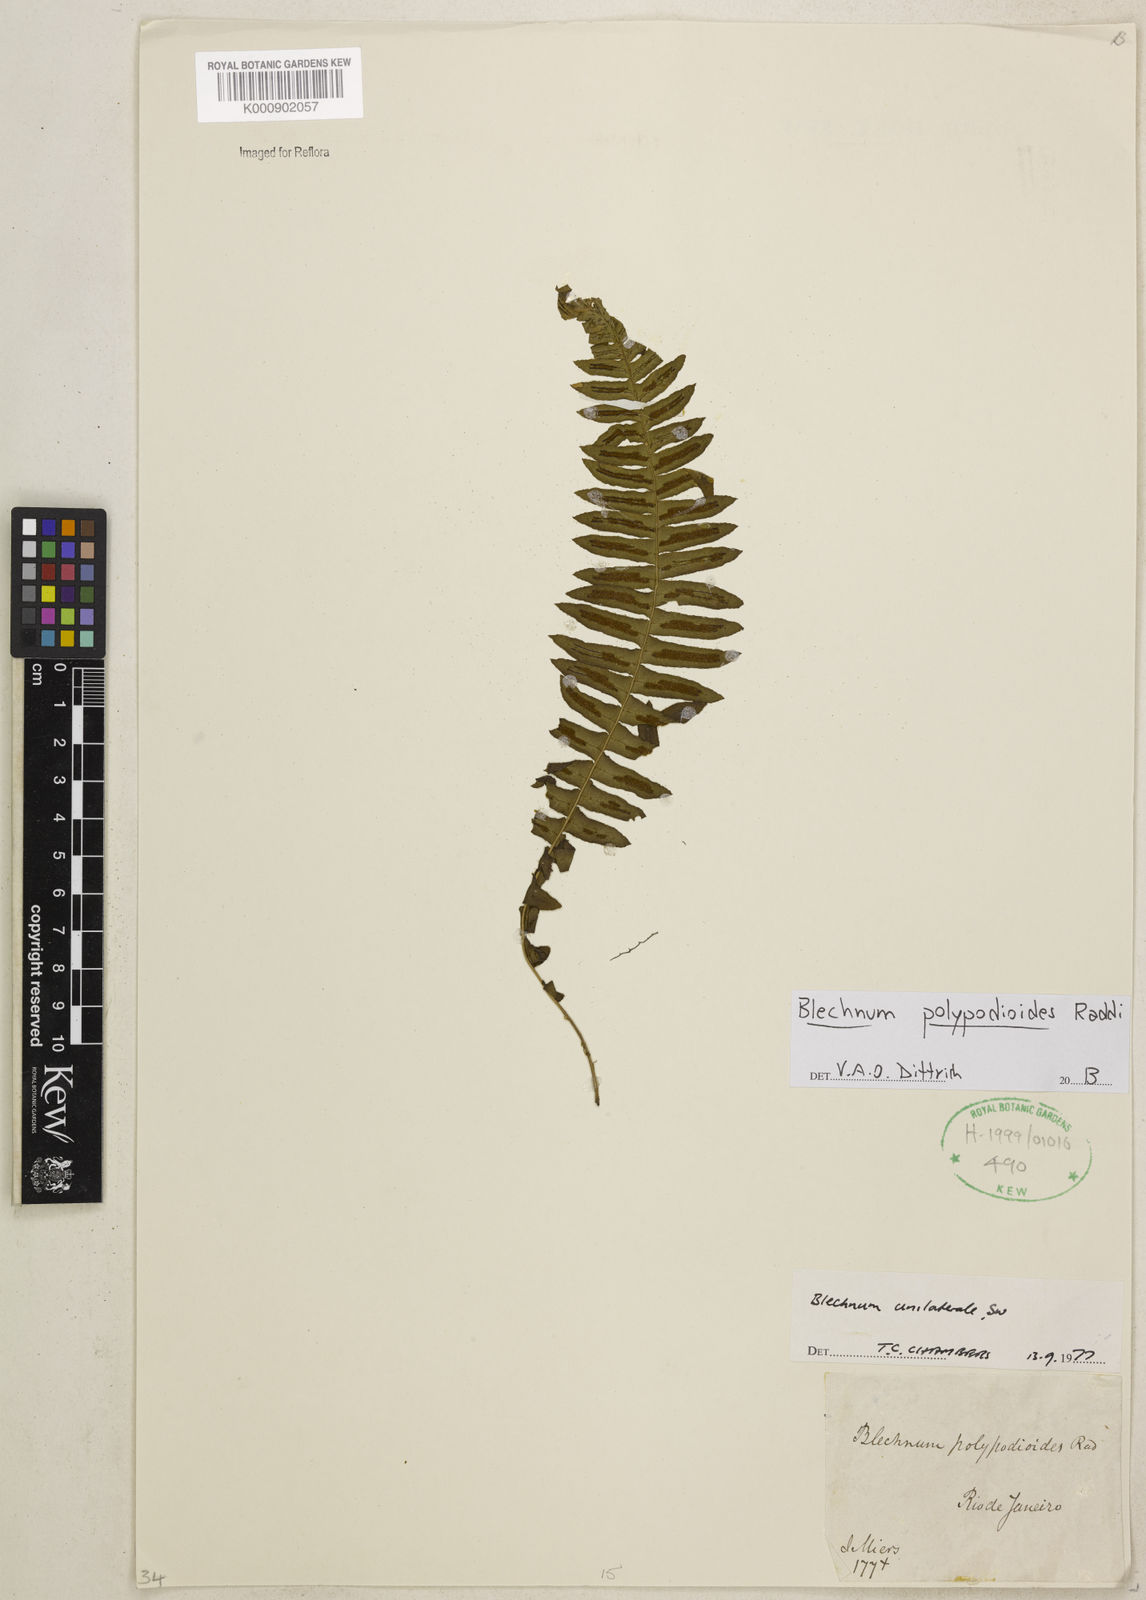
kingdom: Plantae
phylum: Tracheophyta
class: Polypodiopsida
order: Polypodiales
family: Blechnaceae
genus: Blechnum
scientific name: Blechnum polypodioides
